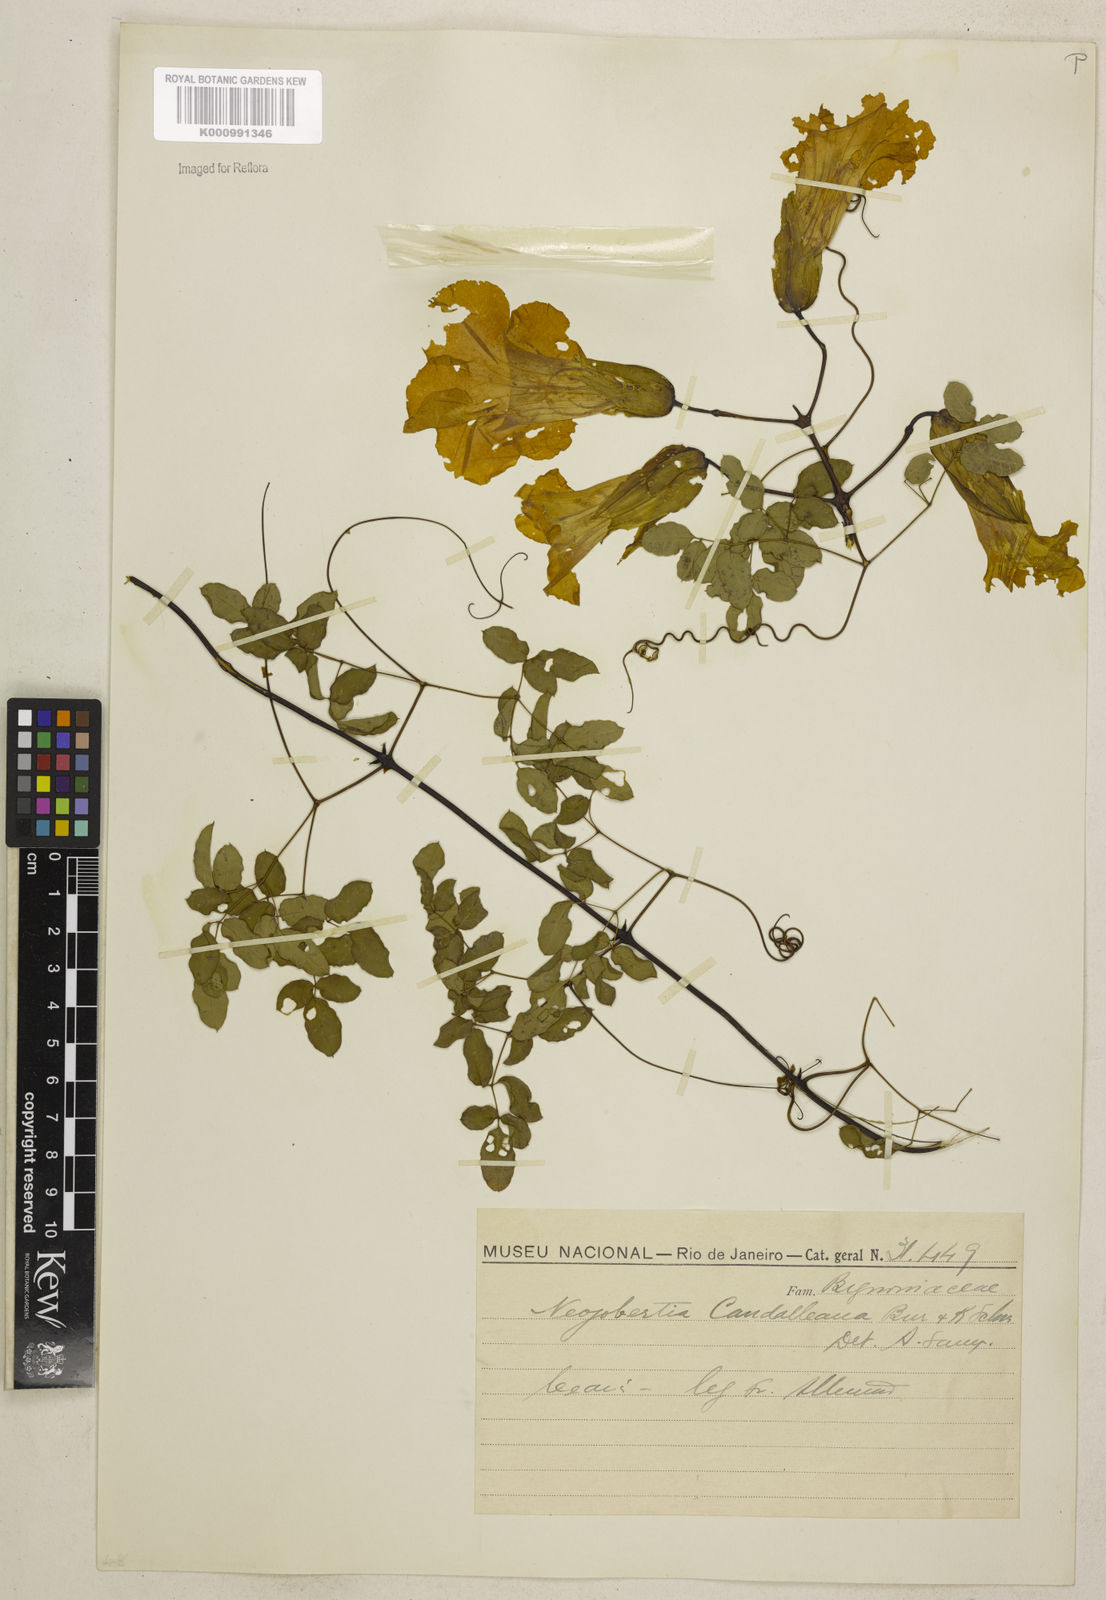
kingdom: Plantae
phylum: Tracheophyta
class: Magnoliopsida
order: Lamiales
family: Bignoniaceae
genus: Adenocalymma
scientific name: Adenocalymma candolleanum
